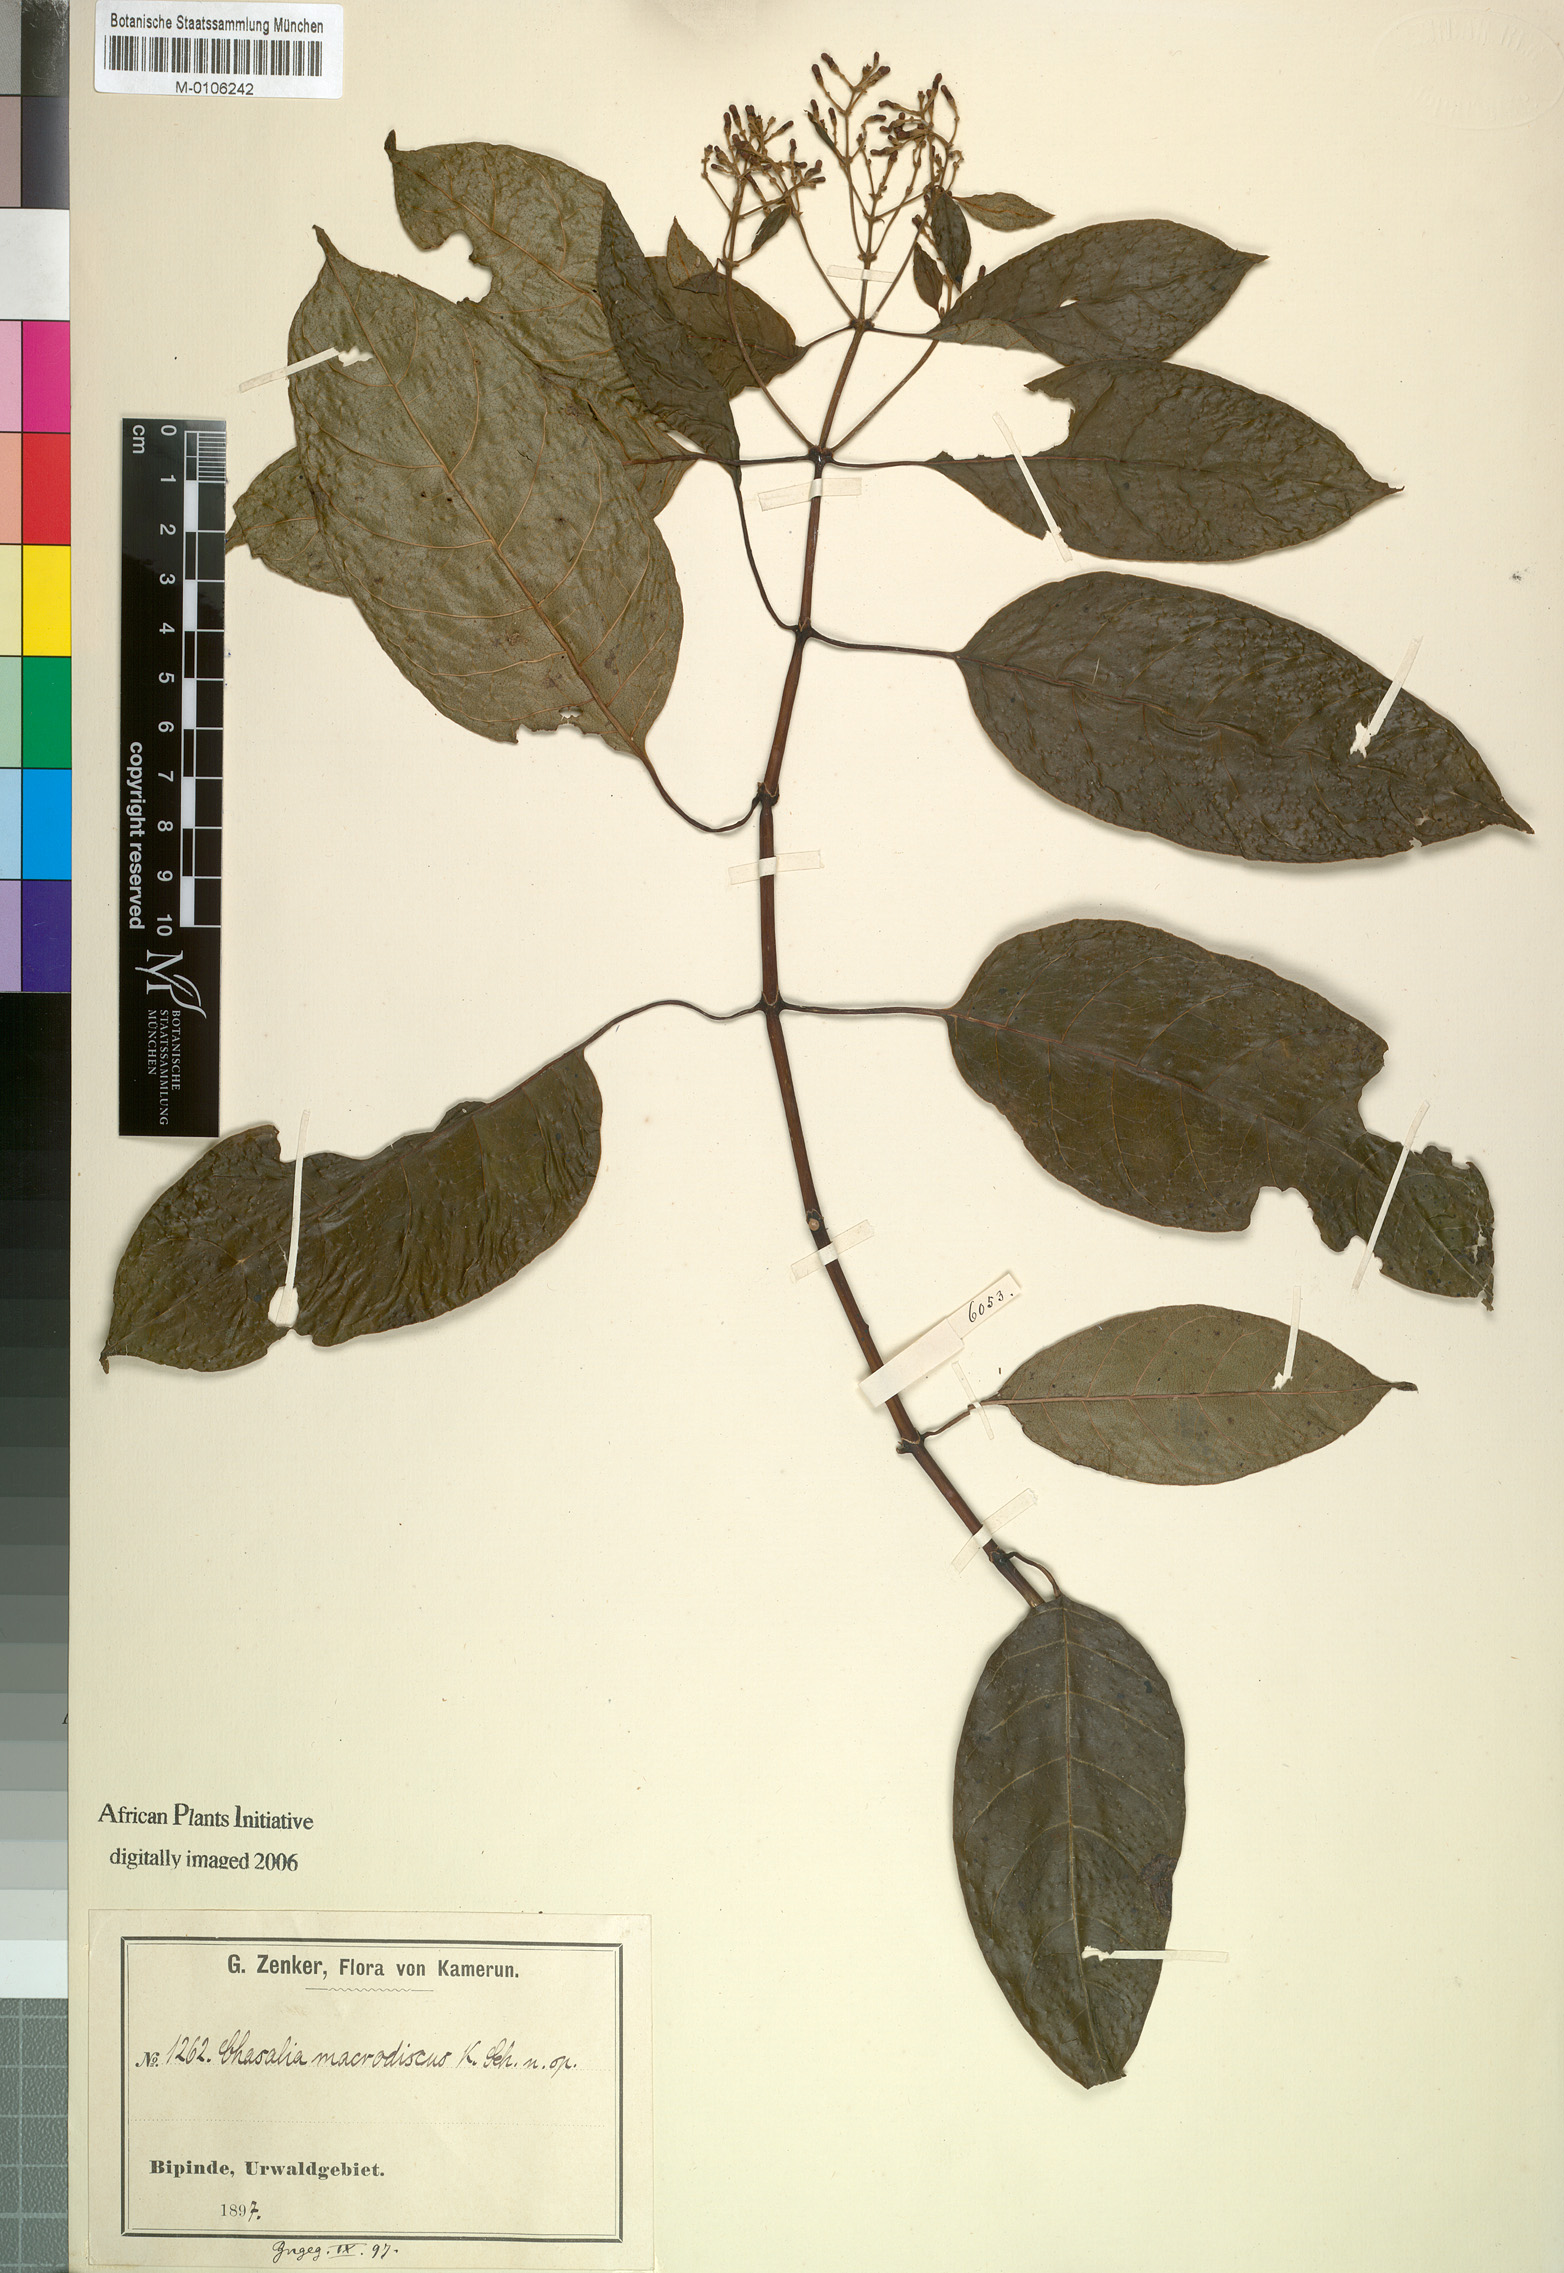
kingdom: Plantae
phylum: Tracheophyta
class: Magnoliopsida
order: Gentianales
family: Rubiaceae
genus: Chassalia
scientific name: Chassalia macrodiscus
